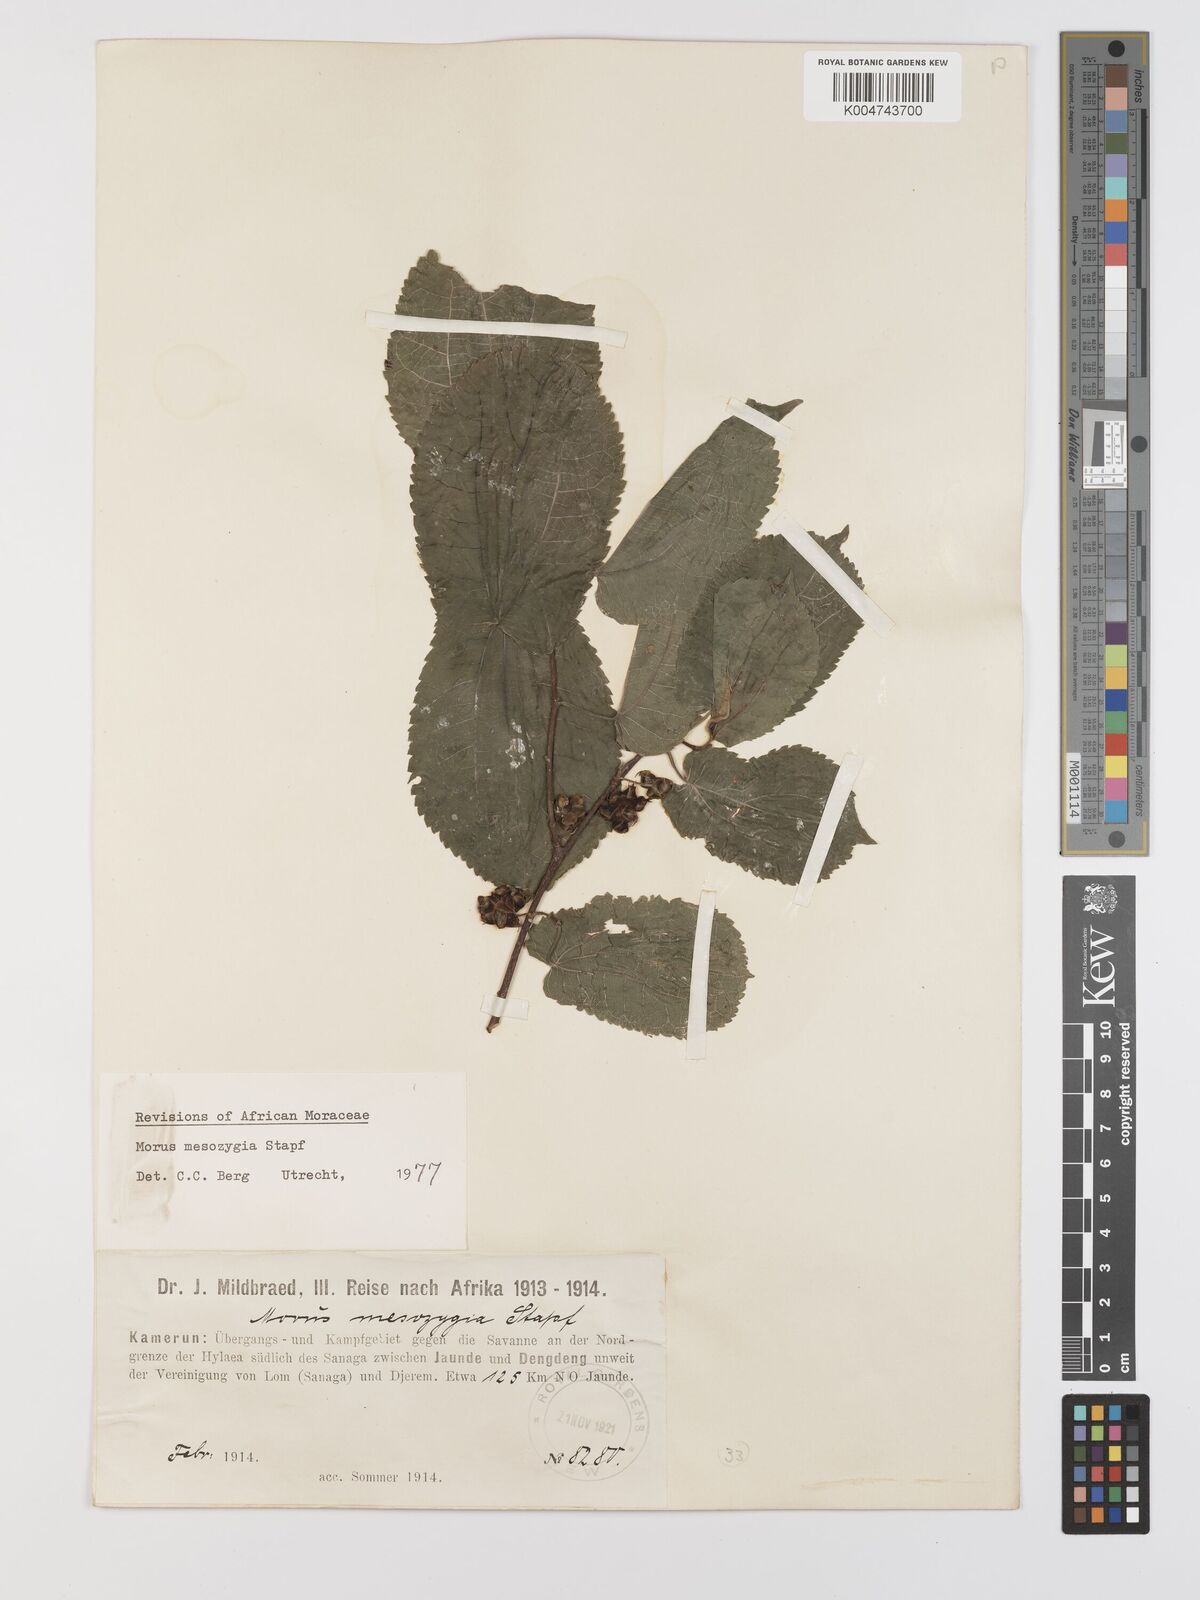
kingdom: Plantae
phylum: Tracheophyta
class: Magnoliopsida
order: Rosales
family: Moraceae
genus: Afromorus
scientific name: Afromorus mesozygia
